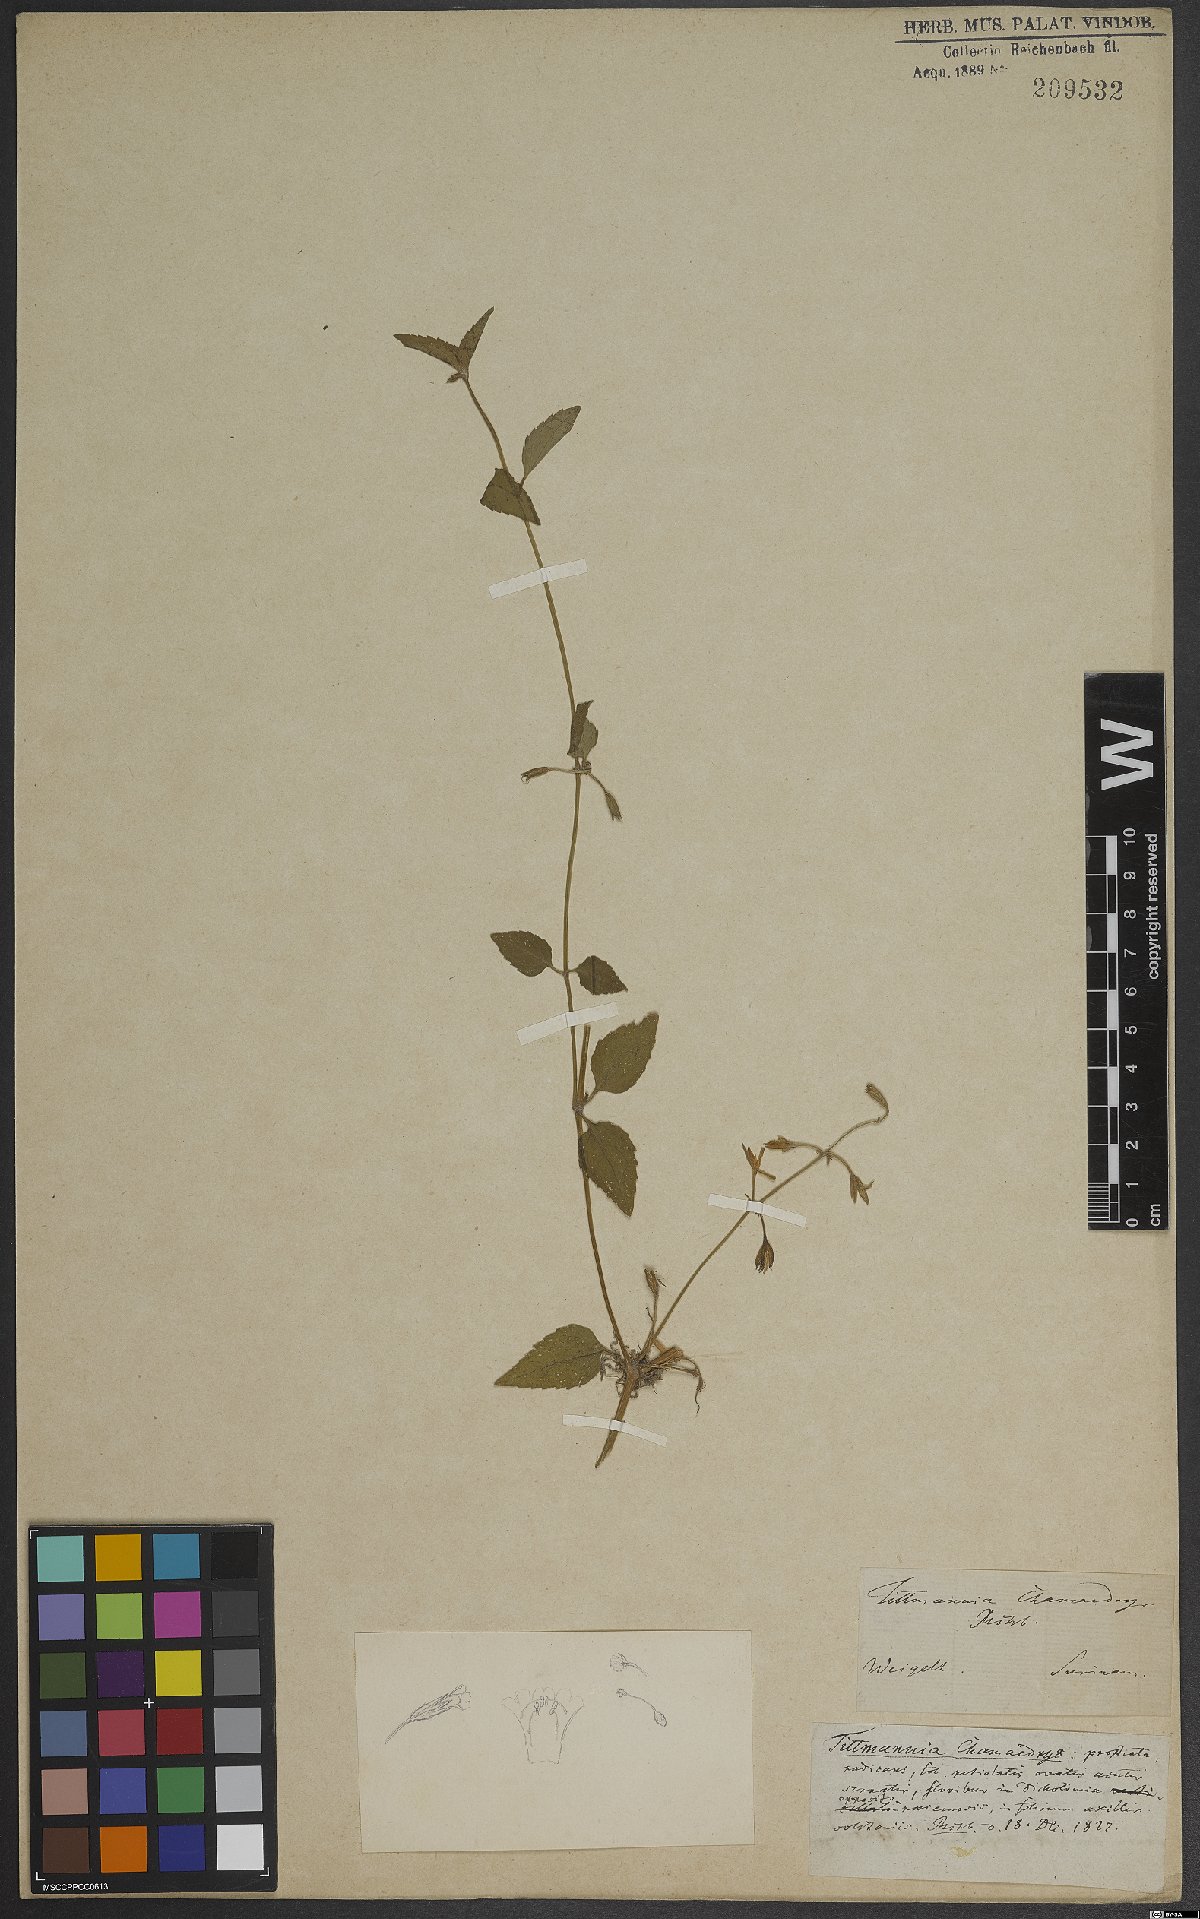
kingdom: Plantae
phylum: Tracheophyta
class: Magnoliopsida
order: Bruniales
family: Bruniaceae
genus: Audouinia
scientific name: Audouinia
